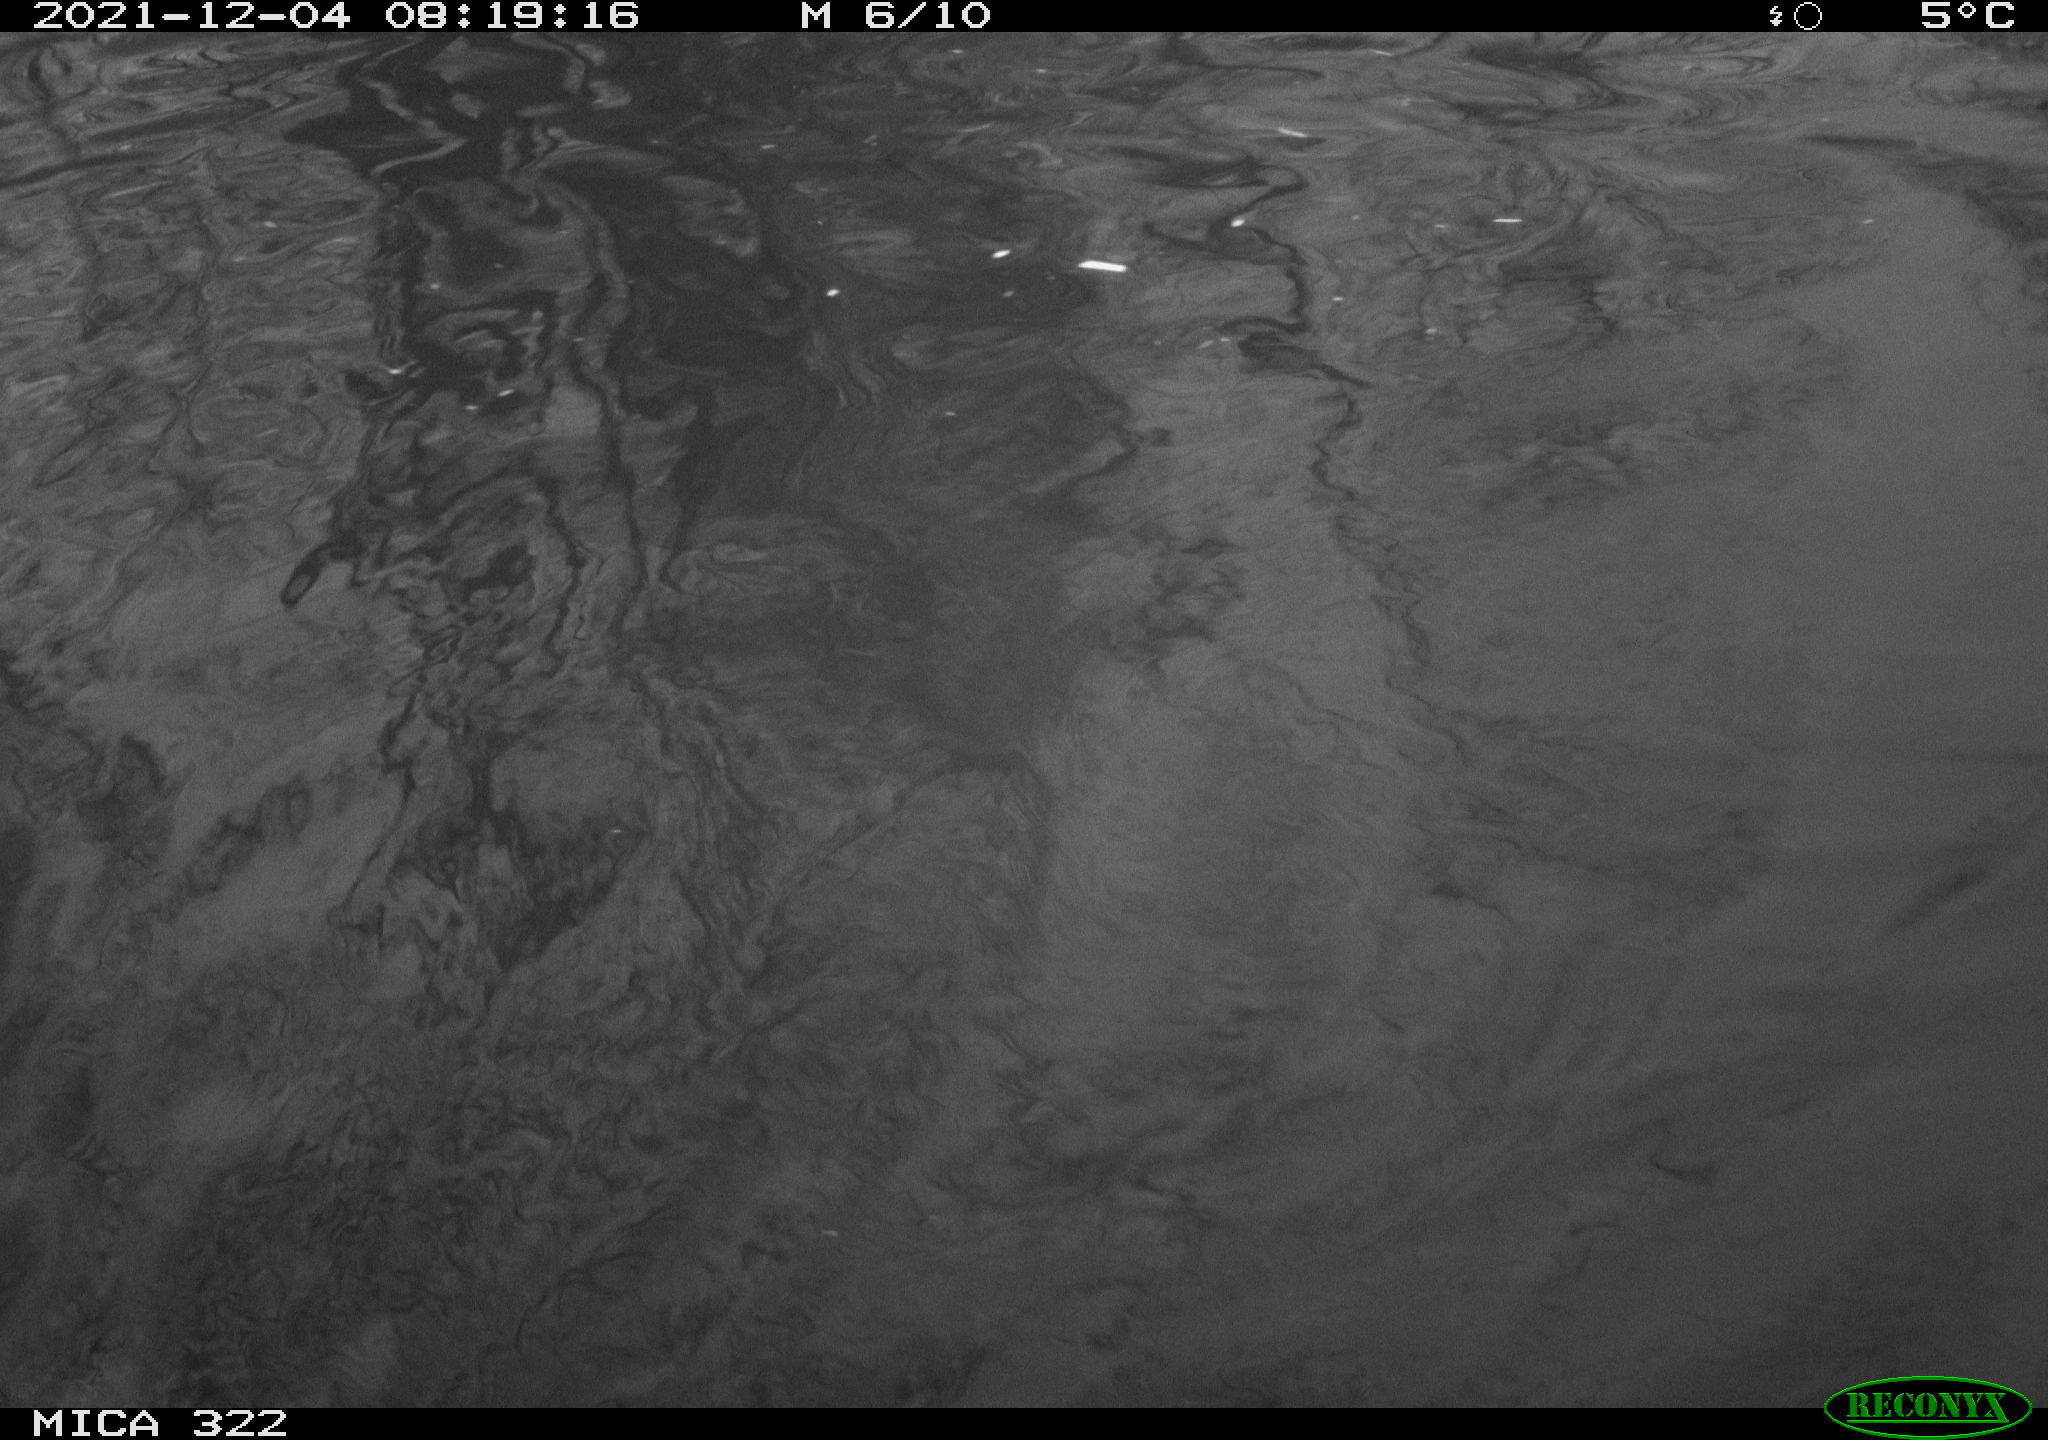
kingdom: Animalia
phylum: Chordata
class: Aves
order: Gruiformes
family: Rallidae
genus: Gallinula
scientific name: Gallinula chloropus
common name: Common moorhen
